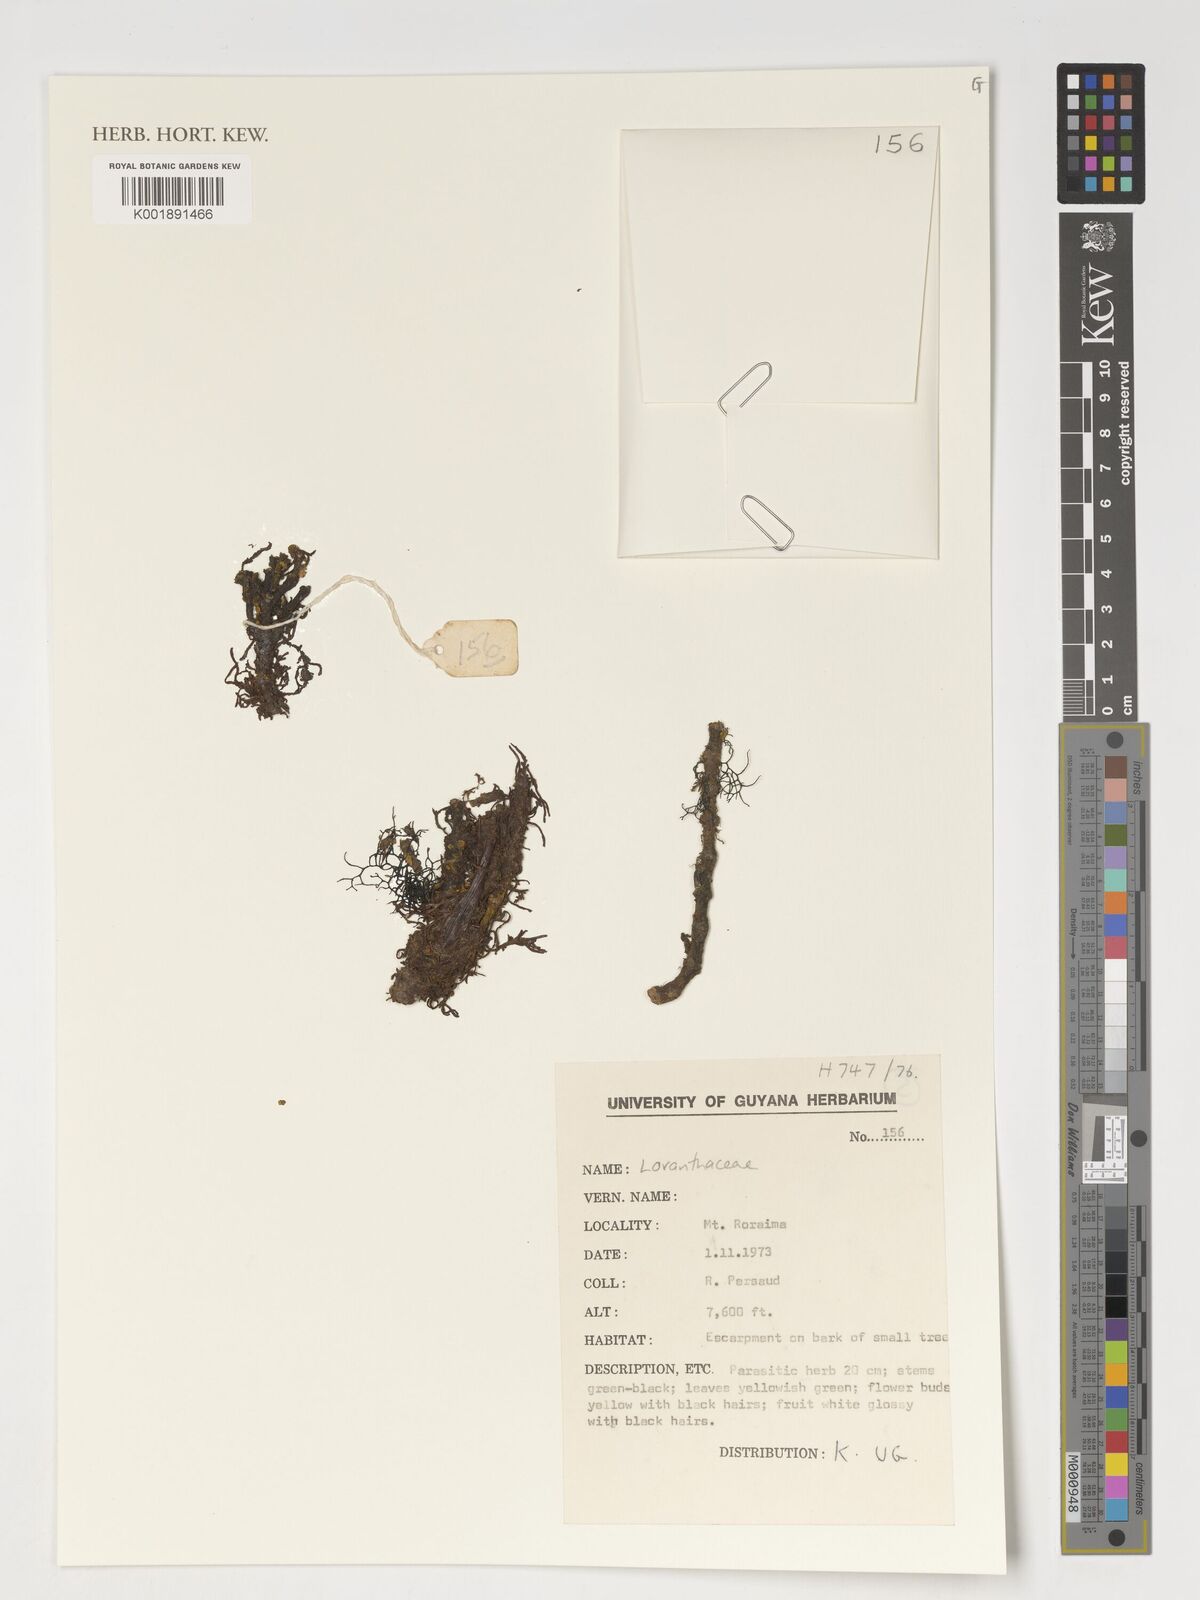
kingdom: Plantae
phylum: Tracheophyta
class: Magnoliopsida
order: Santalales
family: Loranthaceae
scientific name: Loranthaceae
